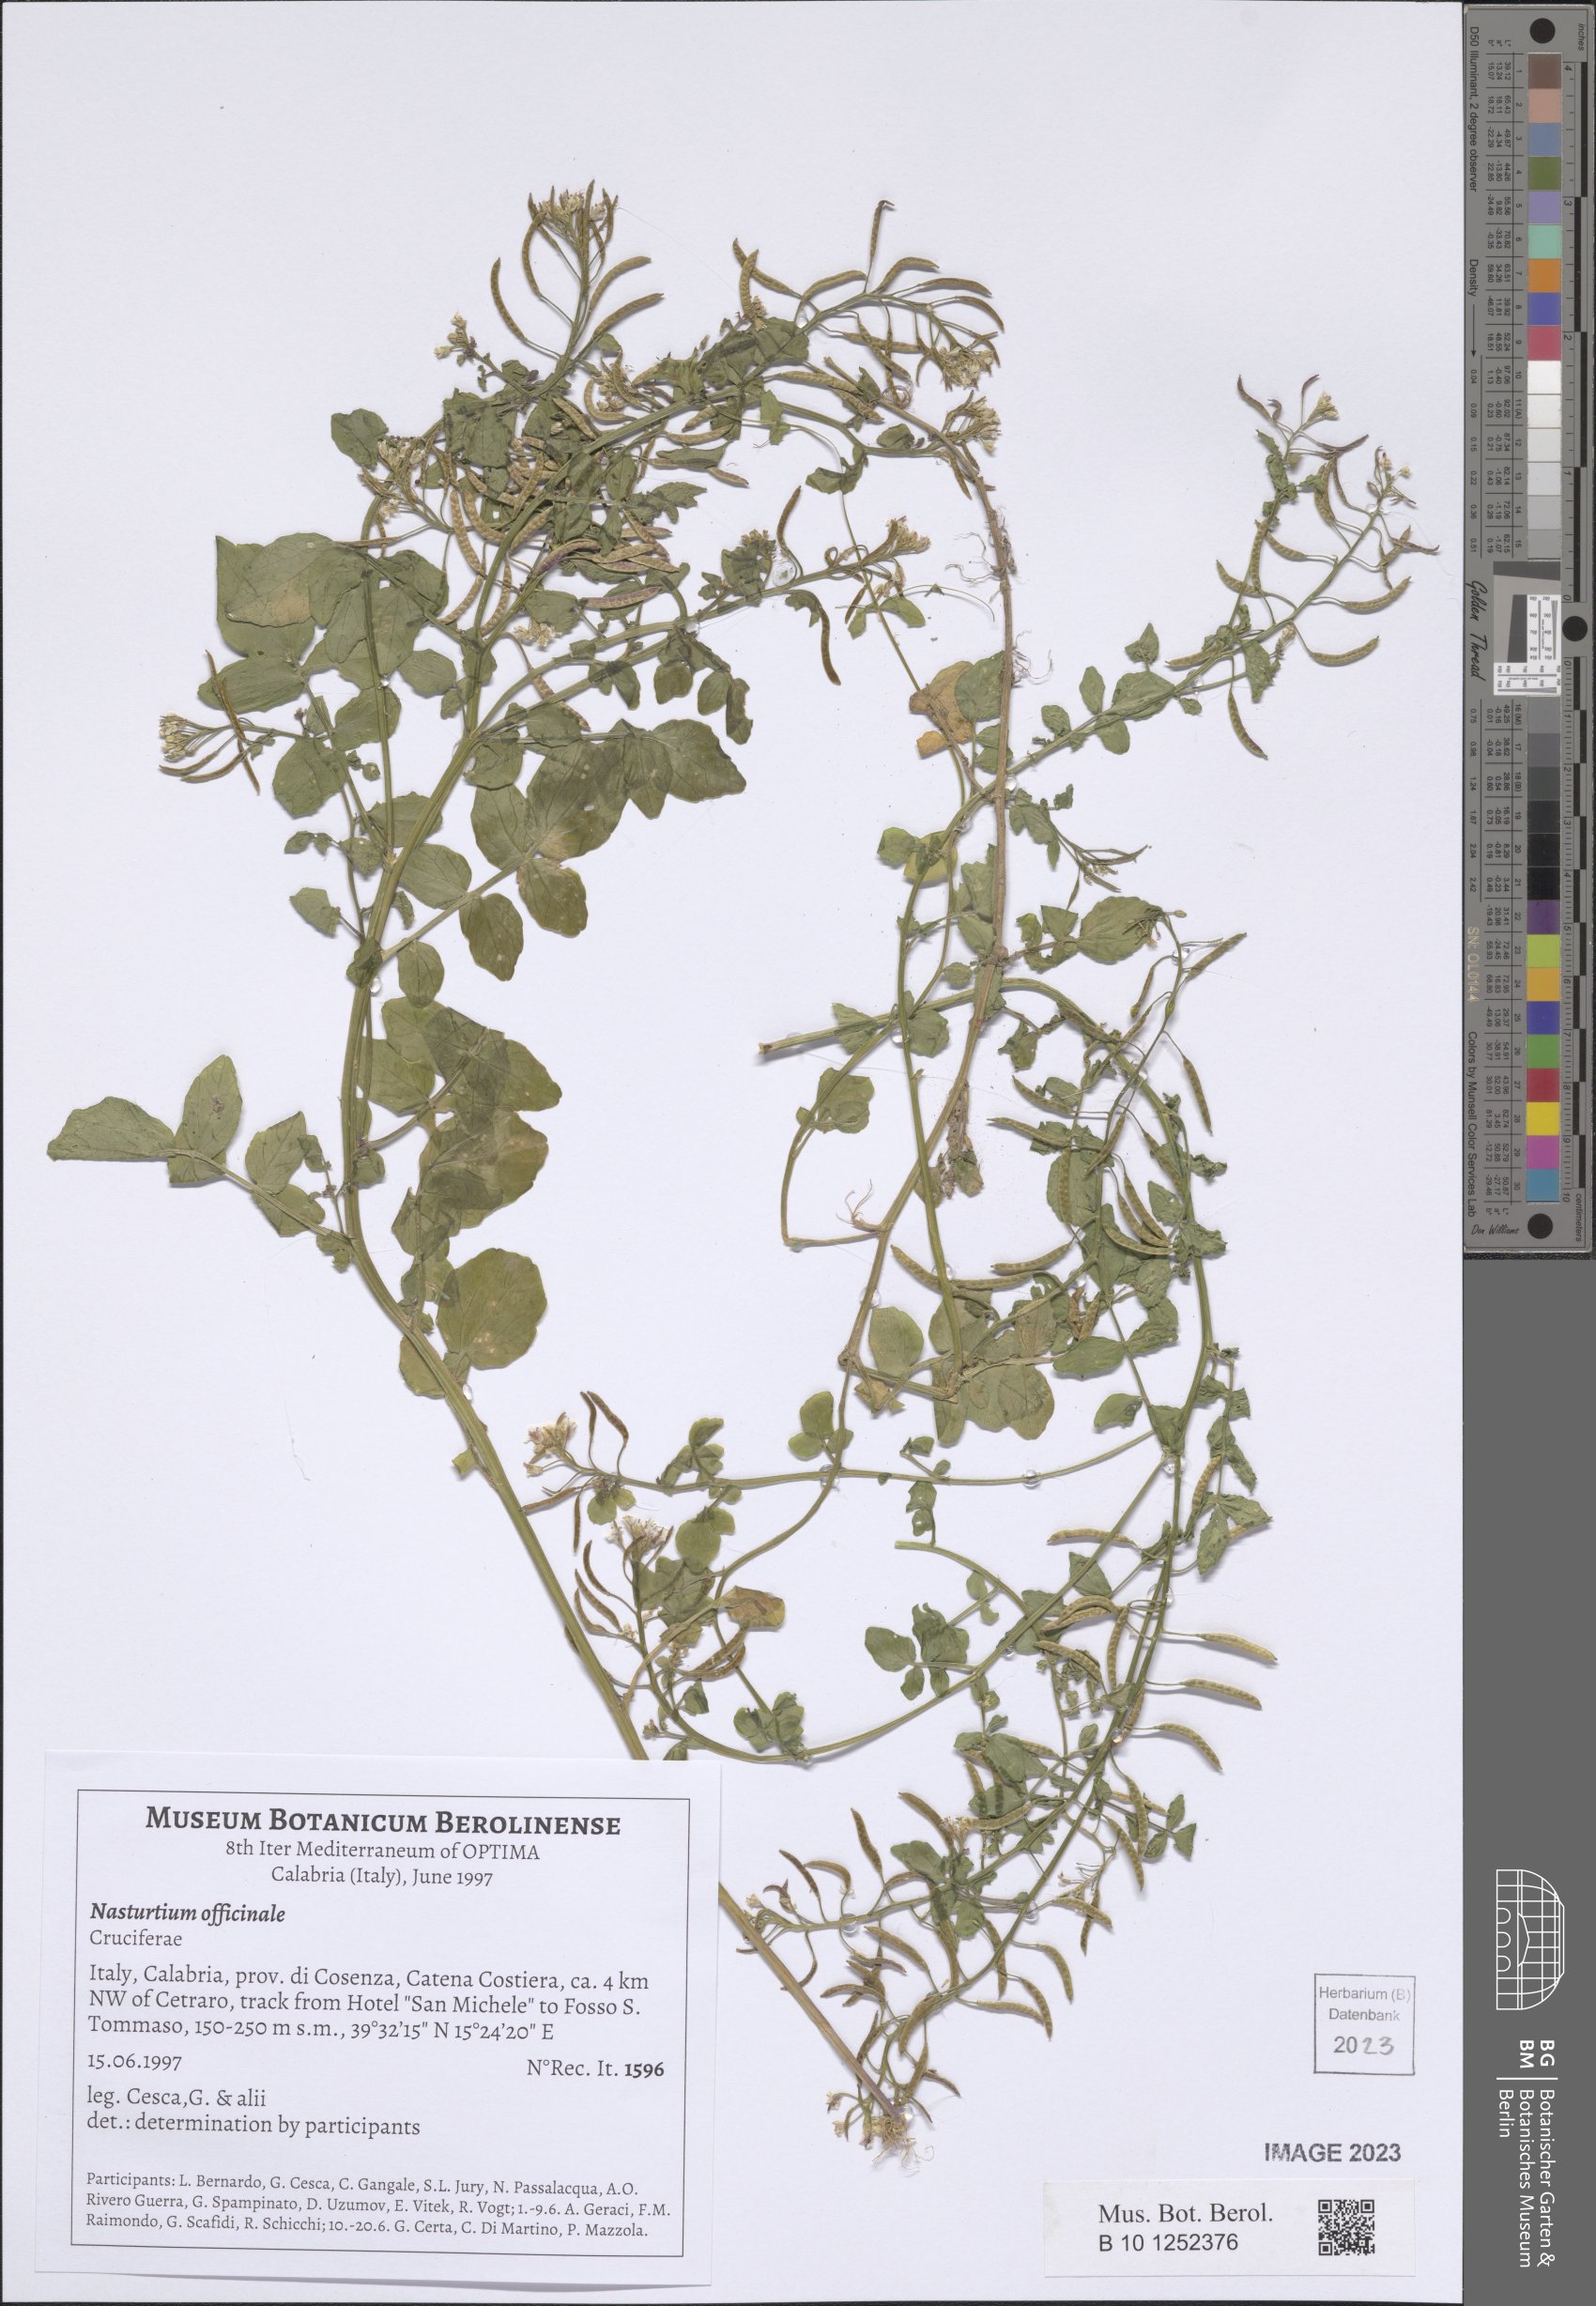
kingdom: Plantae
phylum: Tracheophyta
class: Magnoliopsida
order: Brassicales
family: Brassicaceae
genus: Nasturtium
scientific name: Nasturtium officinale
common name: Watercress
